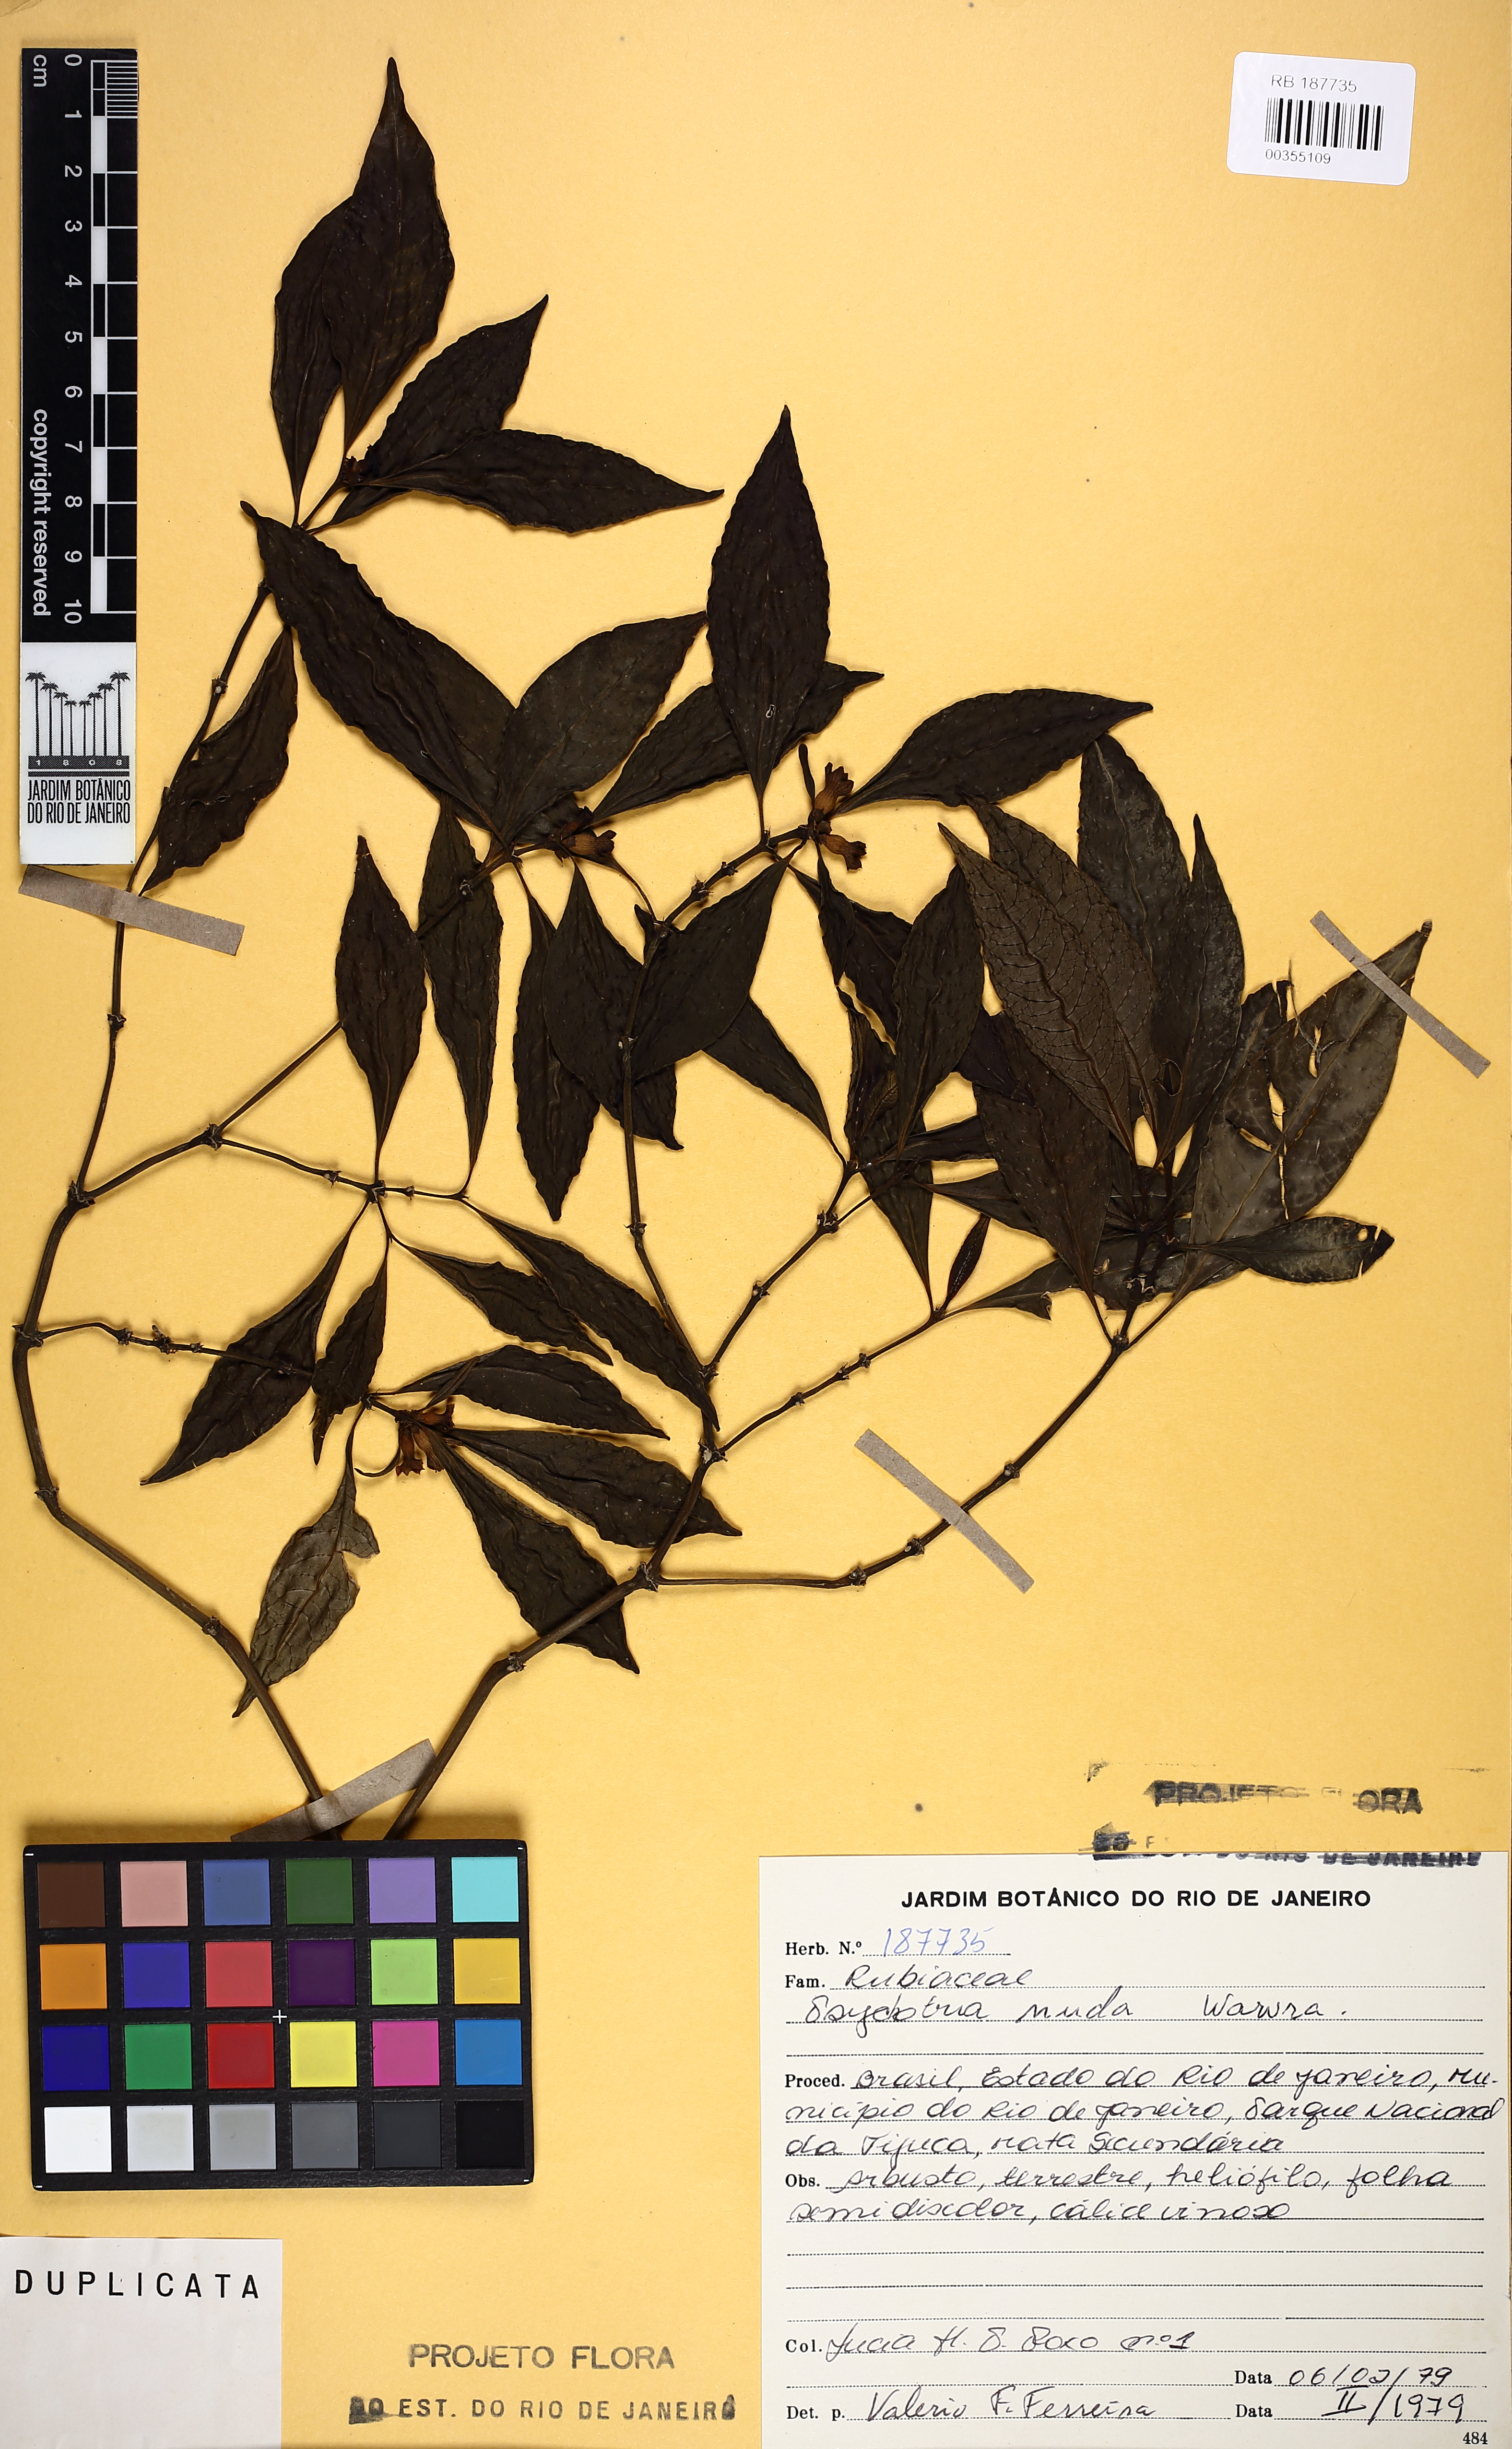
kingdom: Plantae
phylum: Tracheophyta
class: Magnoliopsida
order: Gentianales
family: Rubiaceae
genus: Psychotria
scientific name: Psychotria nuda
